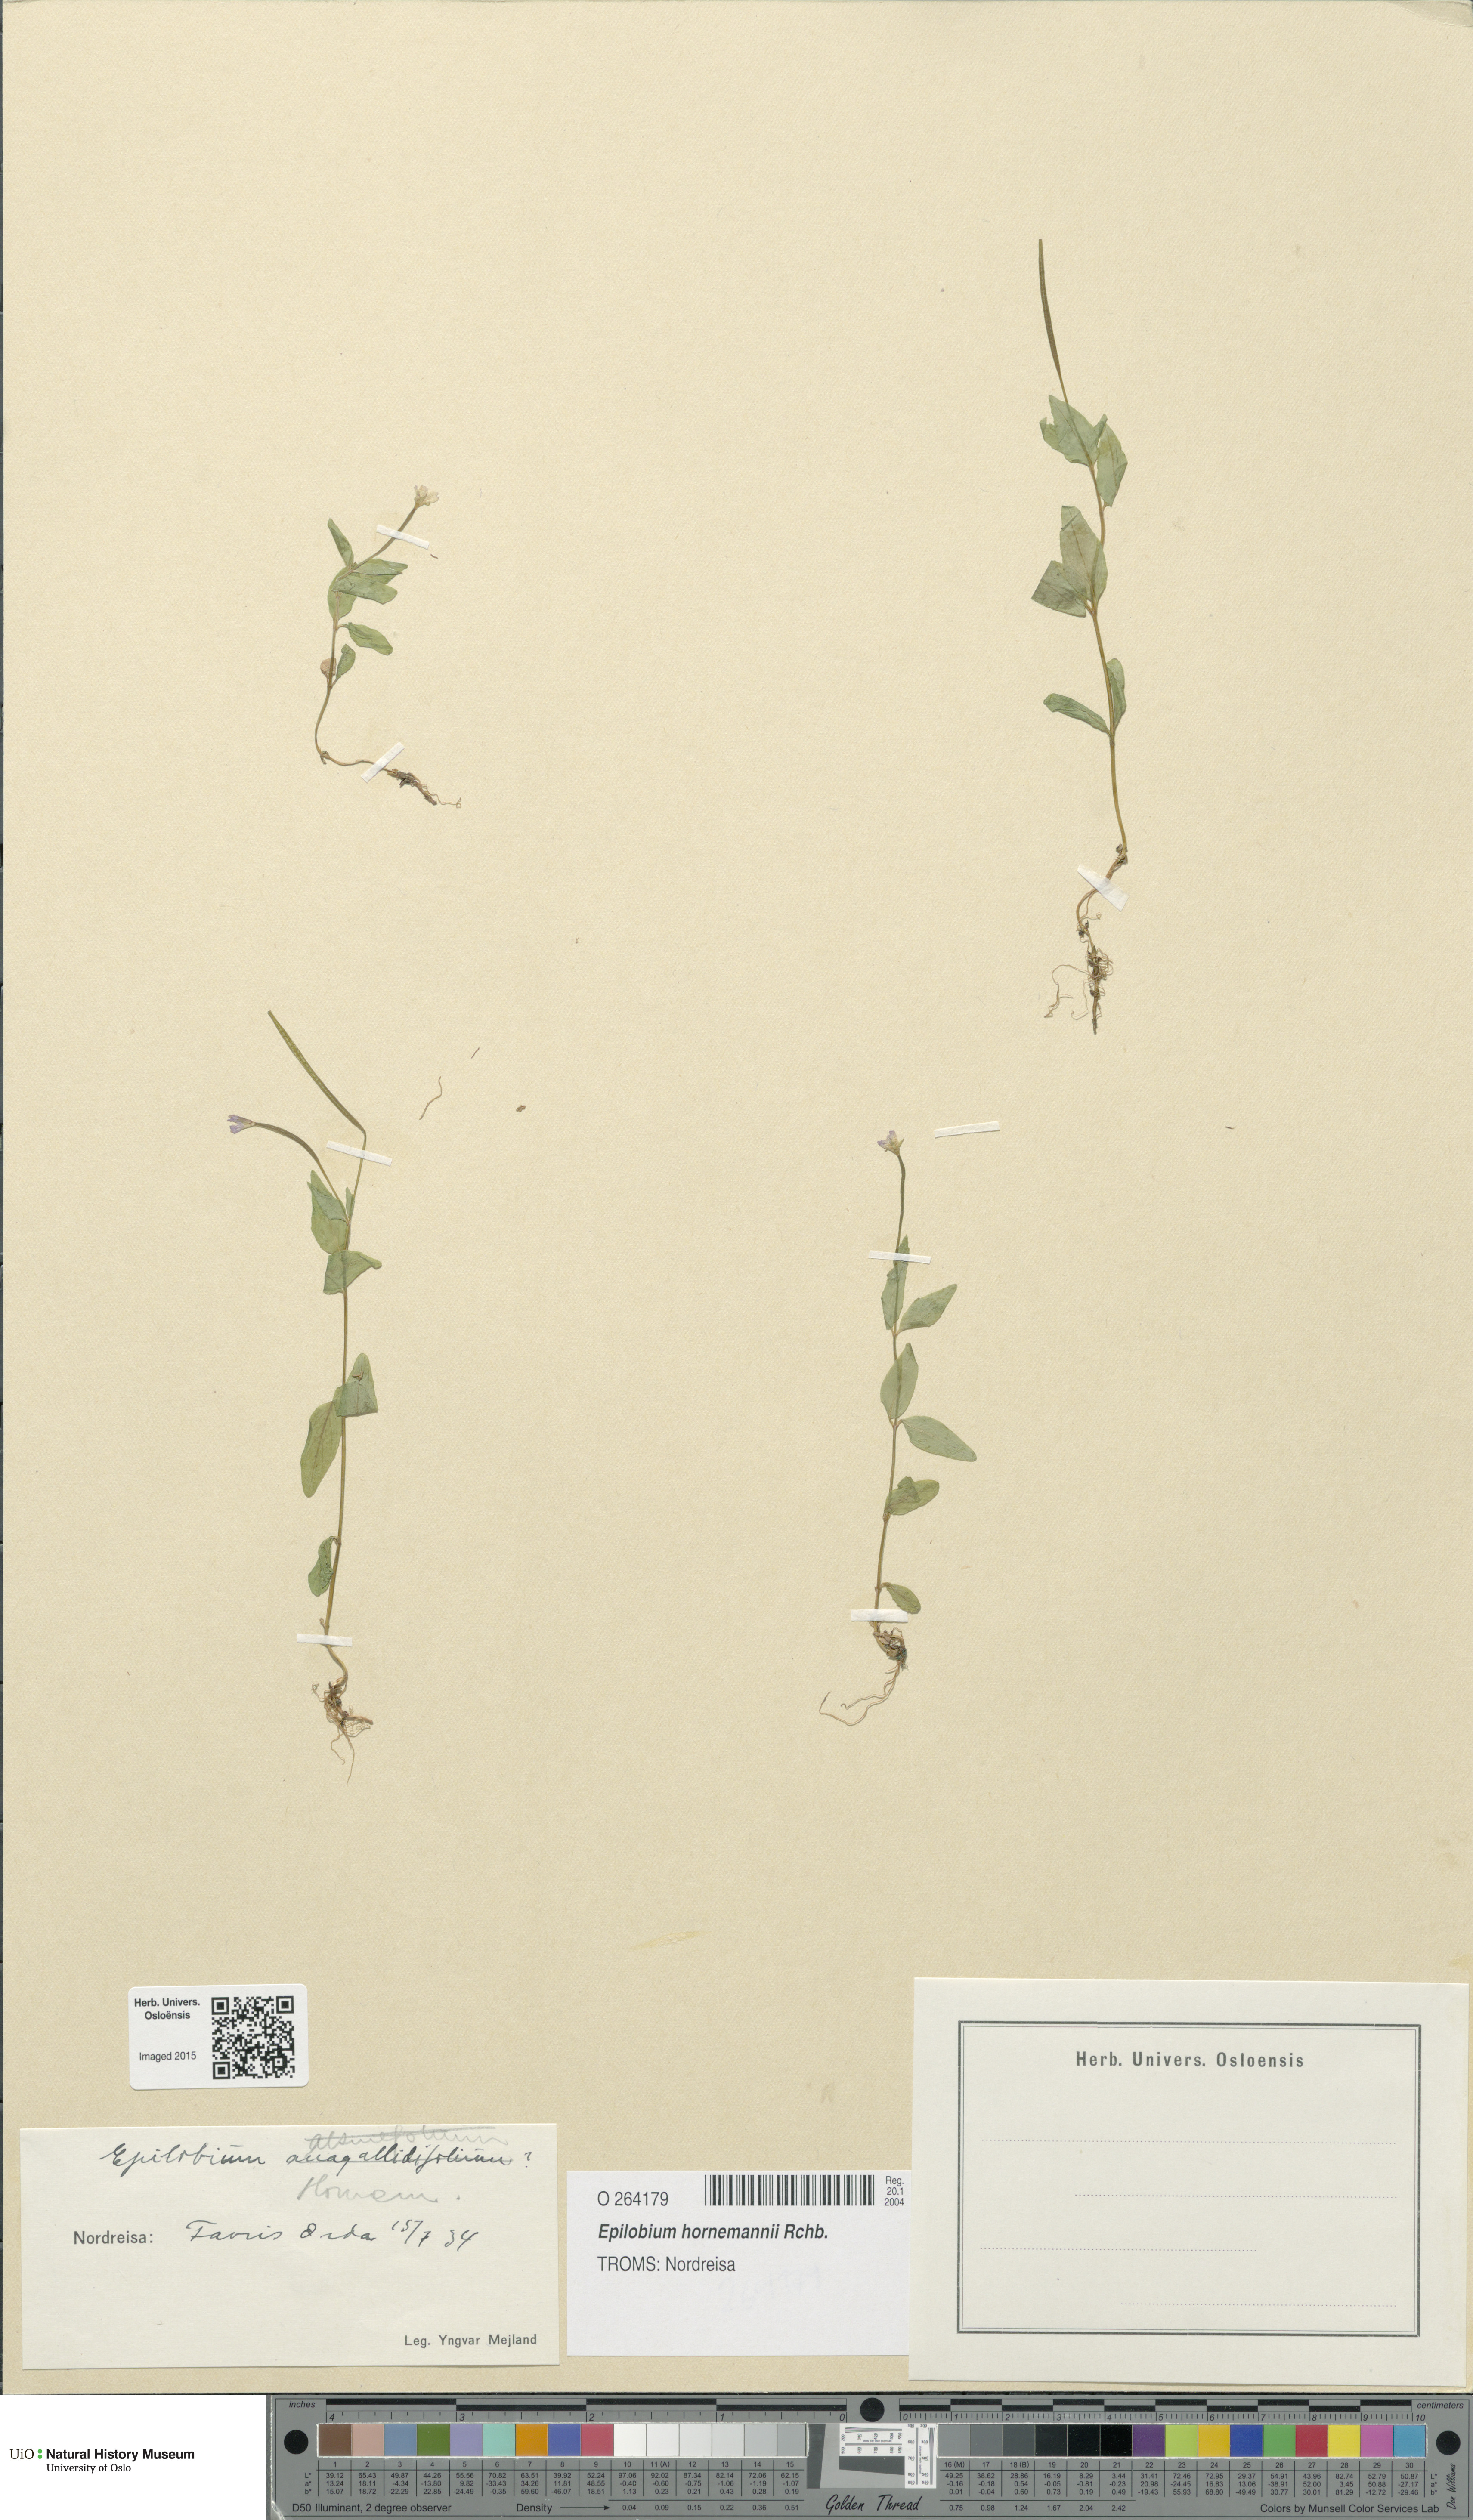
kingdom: Plantae
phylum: Tracheophyta
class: Magnoliopsida
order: Myrtales
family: Onagraceae
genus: Epilobium
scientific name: Epilobium hornemannii
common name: Hornemann's willowherb
